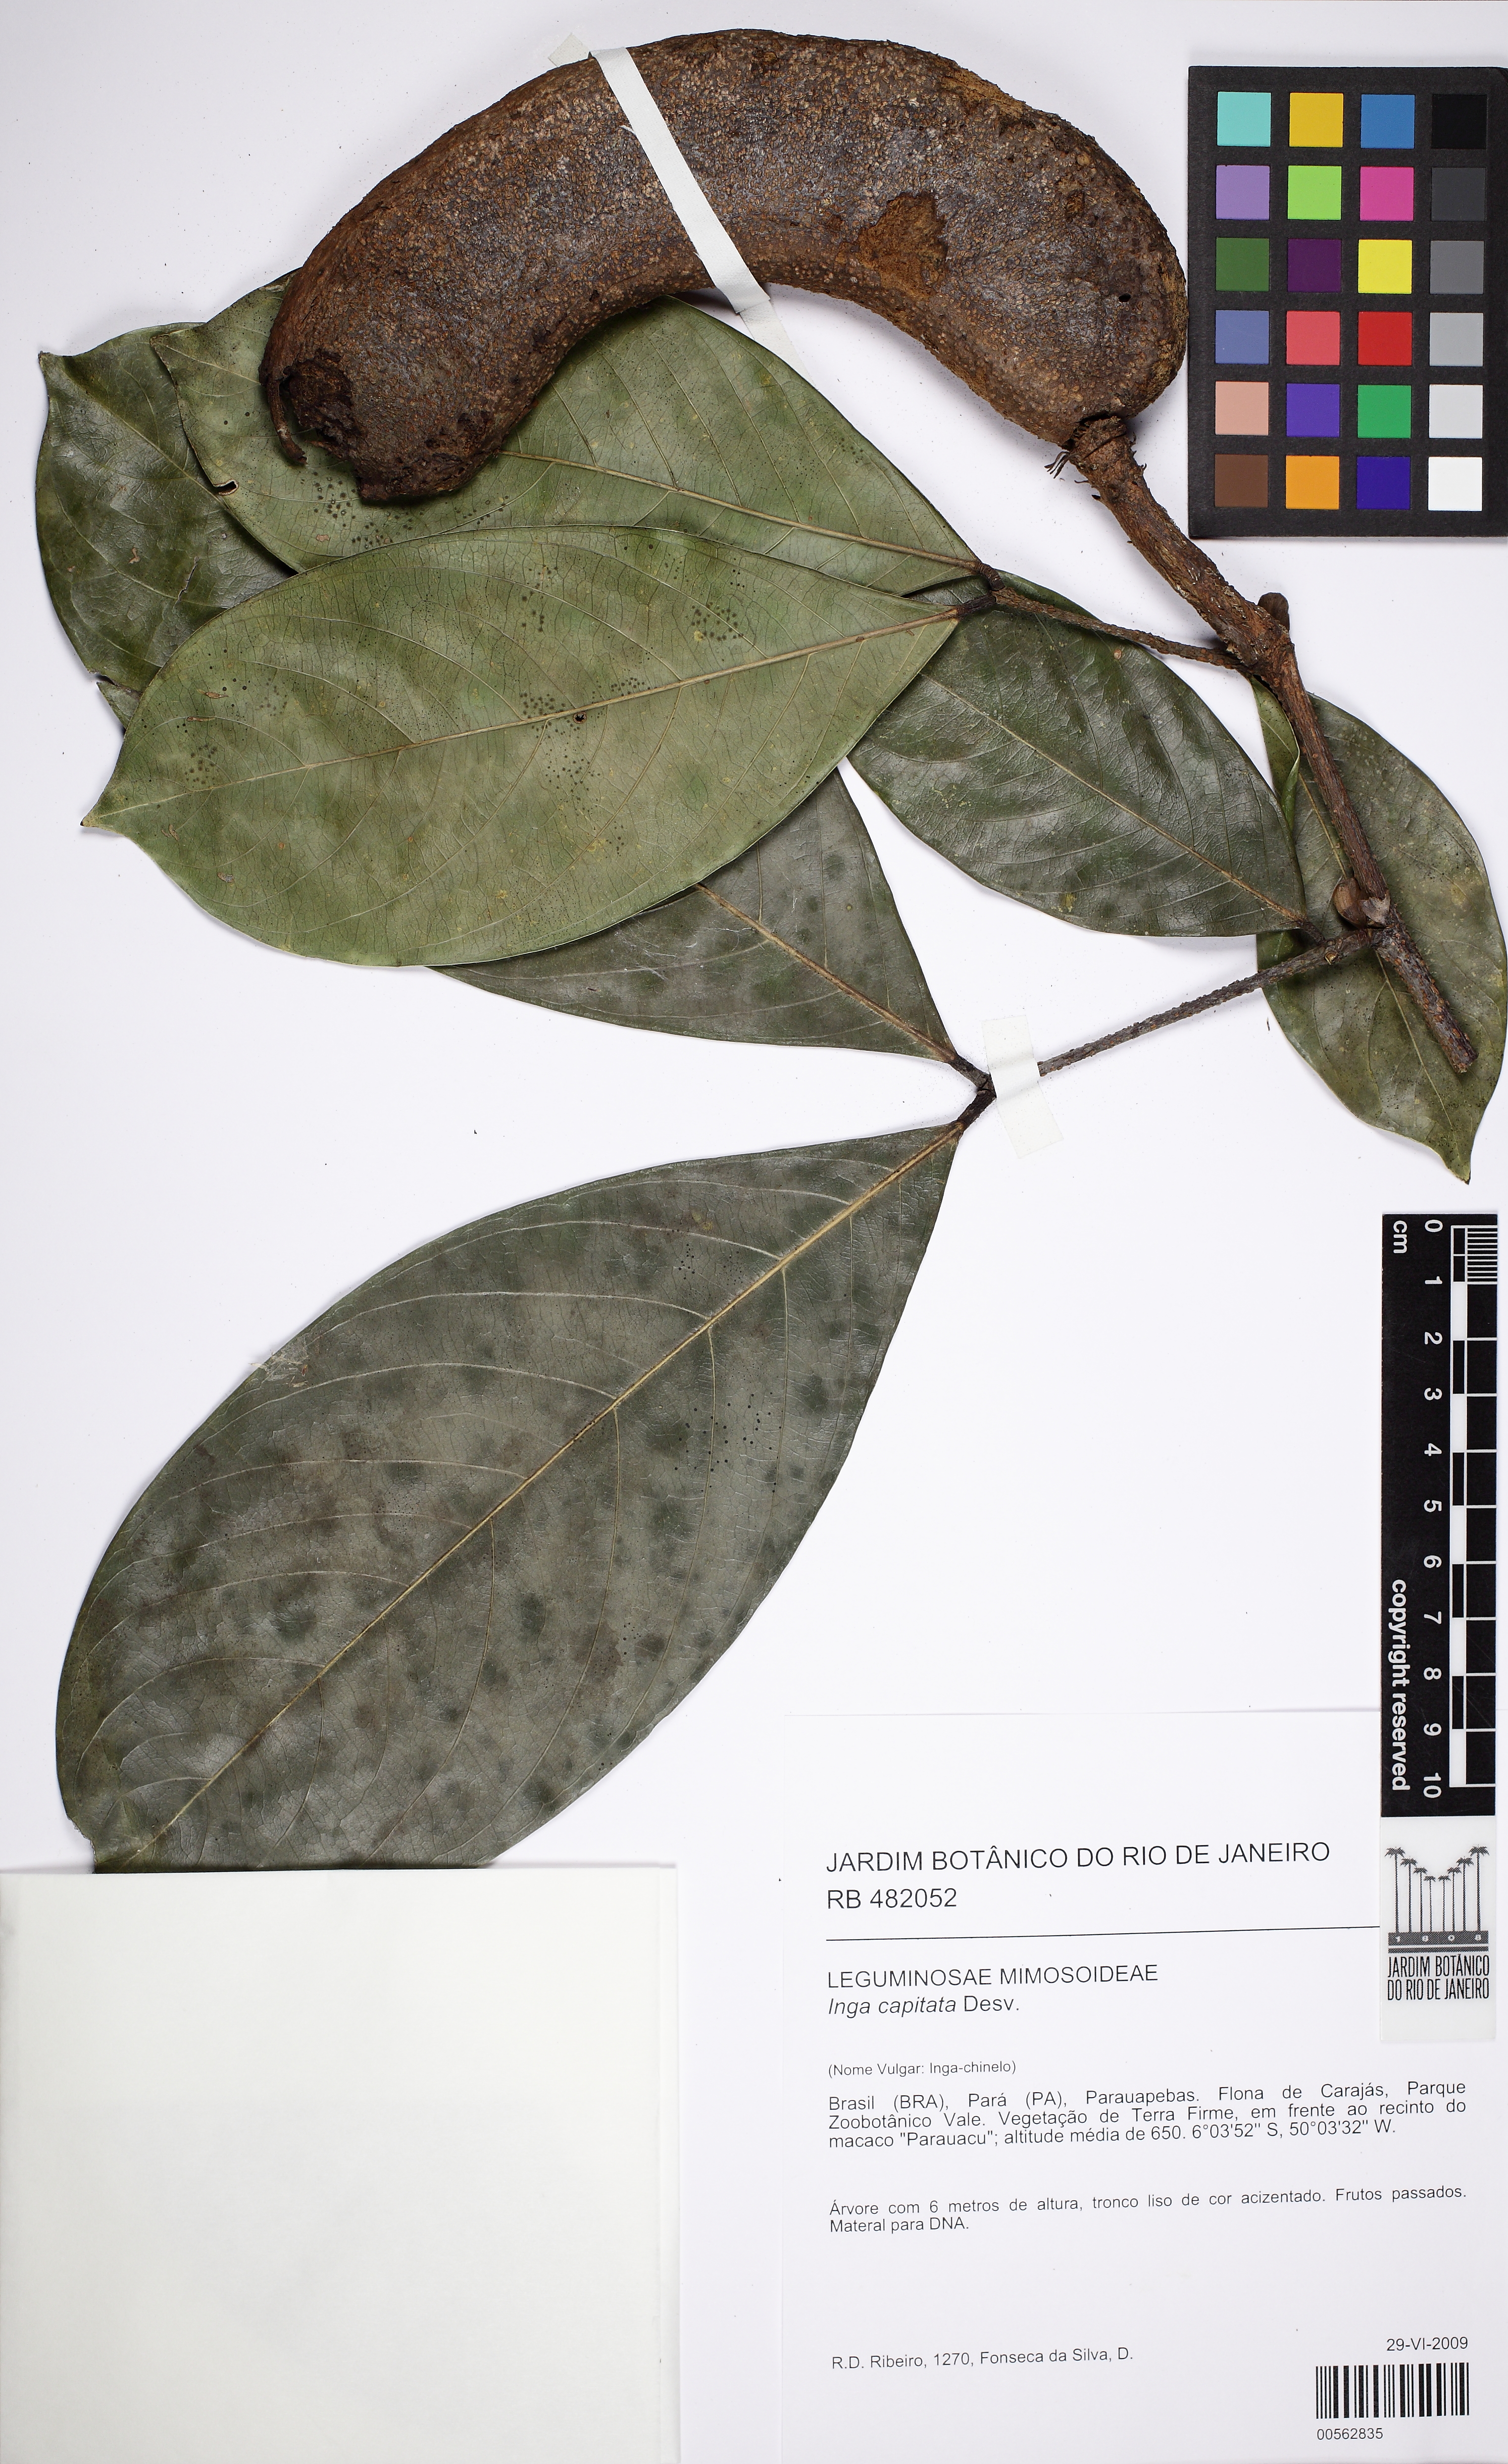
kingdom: Plantae
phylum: Tracheophyta
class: Magnoliopsida
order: Fabales
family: Fabaceae
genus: Inga
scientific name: Inga capitata
